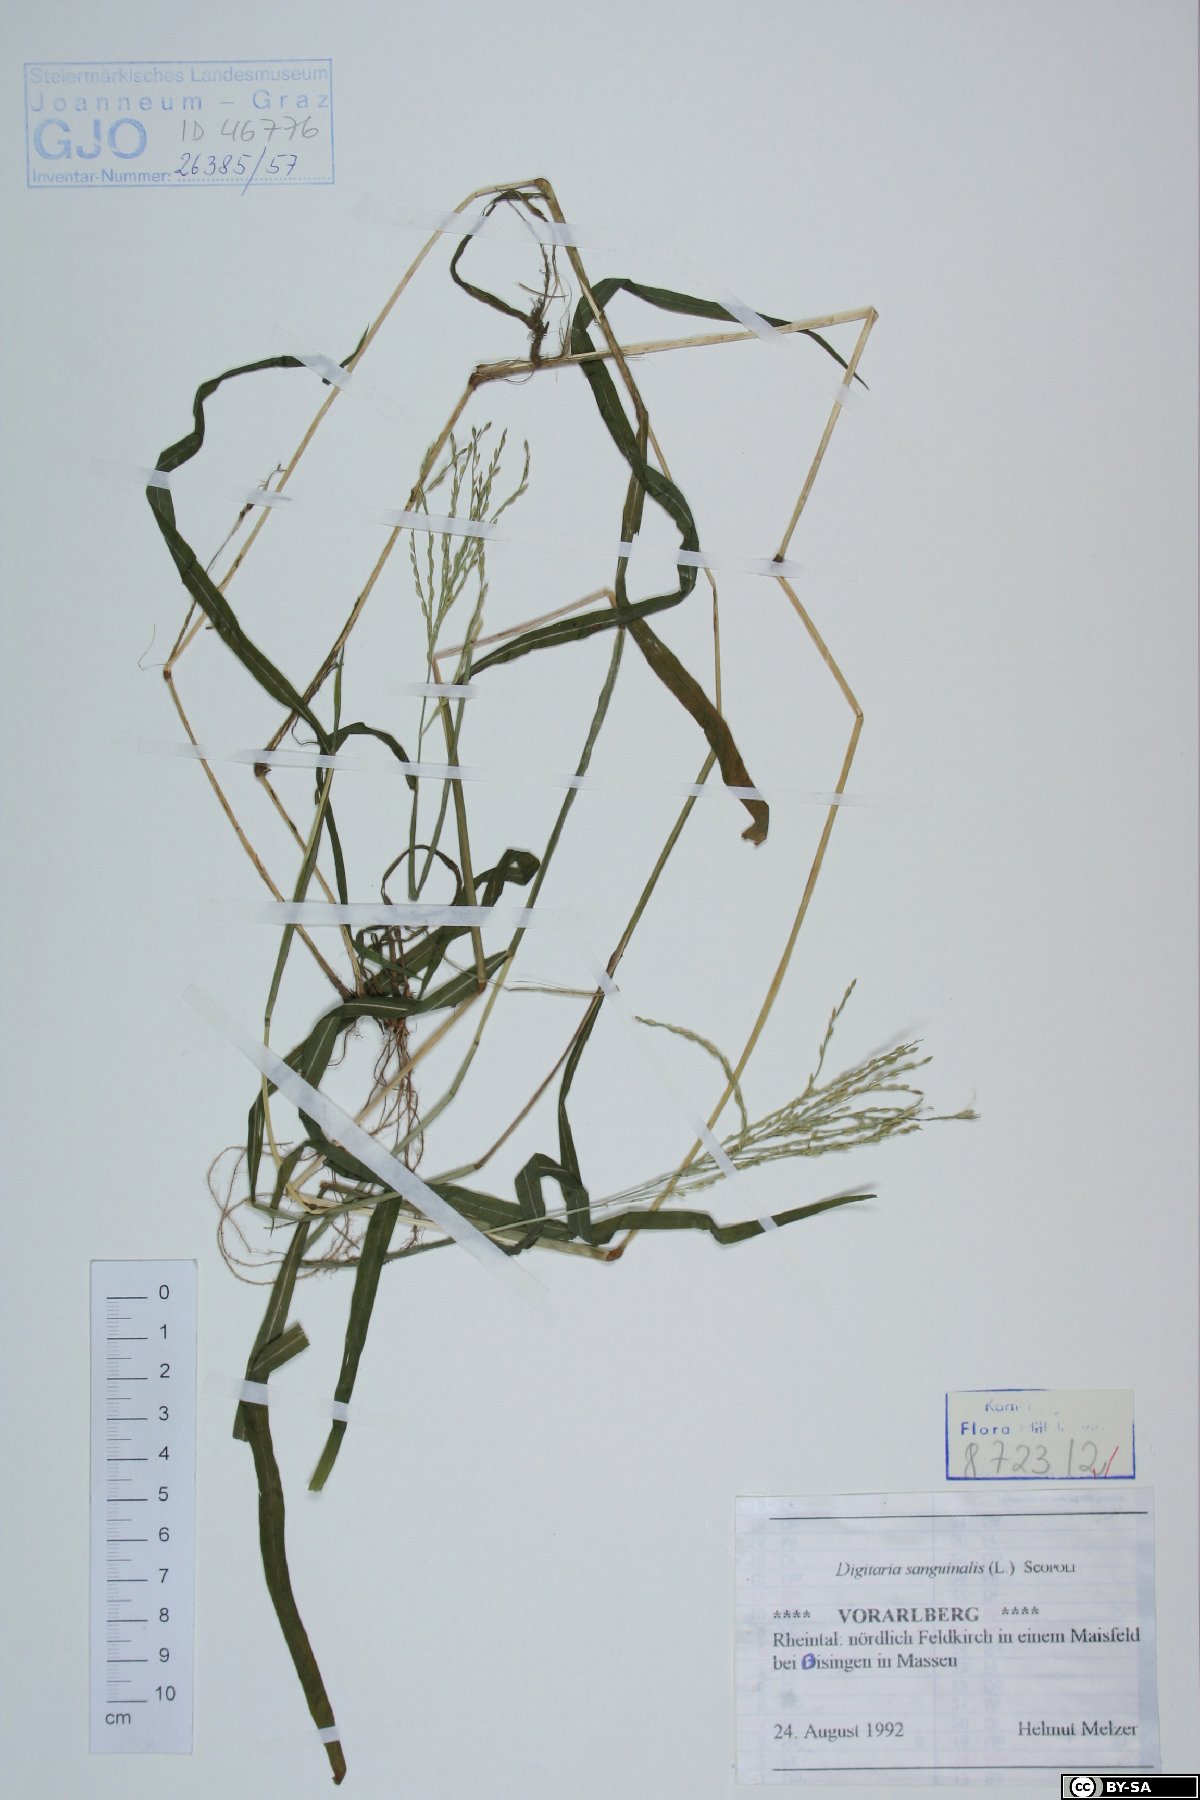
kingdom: Plantae
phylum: Tracheophyta
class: Liliopsida
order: Poales
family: Poaceae
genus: Digitaria
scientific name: Digitaria sanguinalis
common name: Hairy crabgrass
